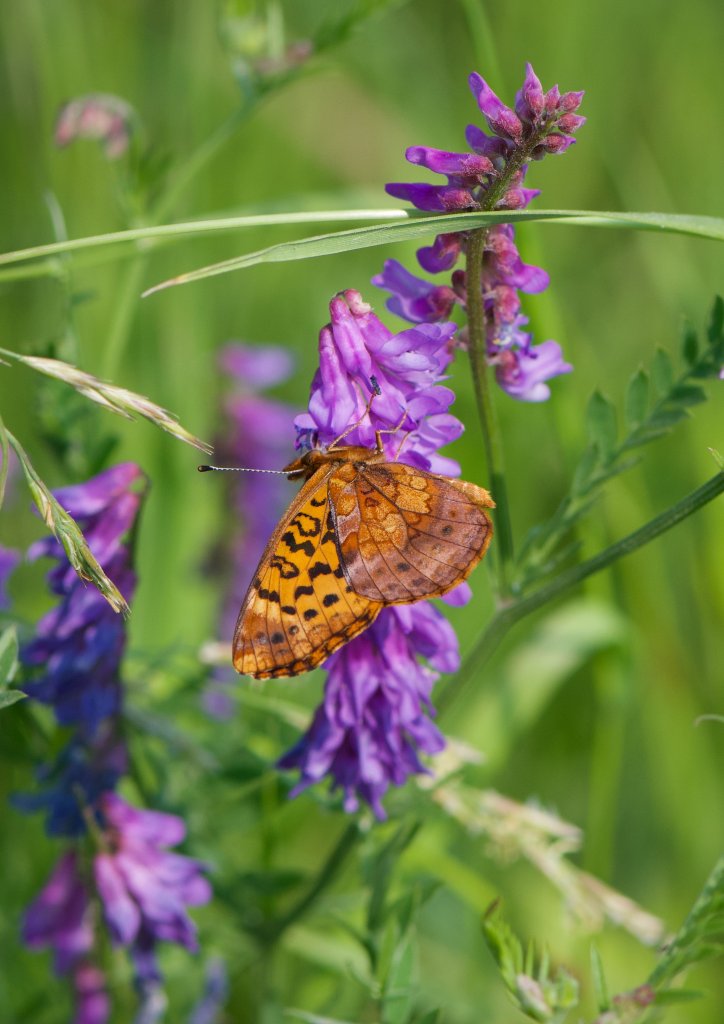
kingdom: Animalia
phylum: Arthropoda
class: Insecta
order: Lepidoptera
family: Nymphalidae
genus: Clossiana
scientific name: Clossiana toddi
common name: Meadow Fritillary
